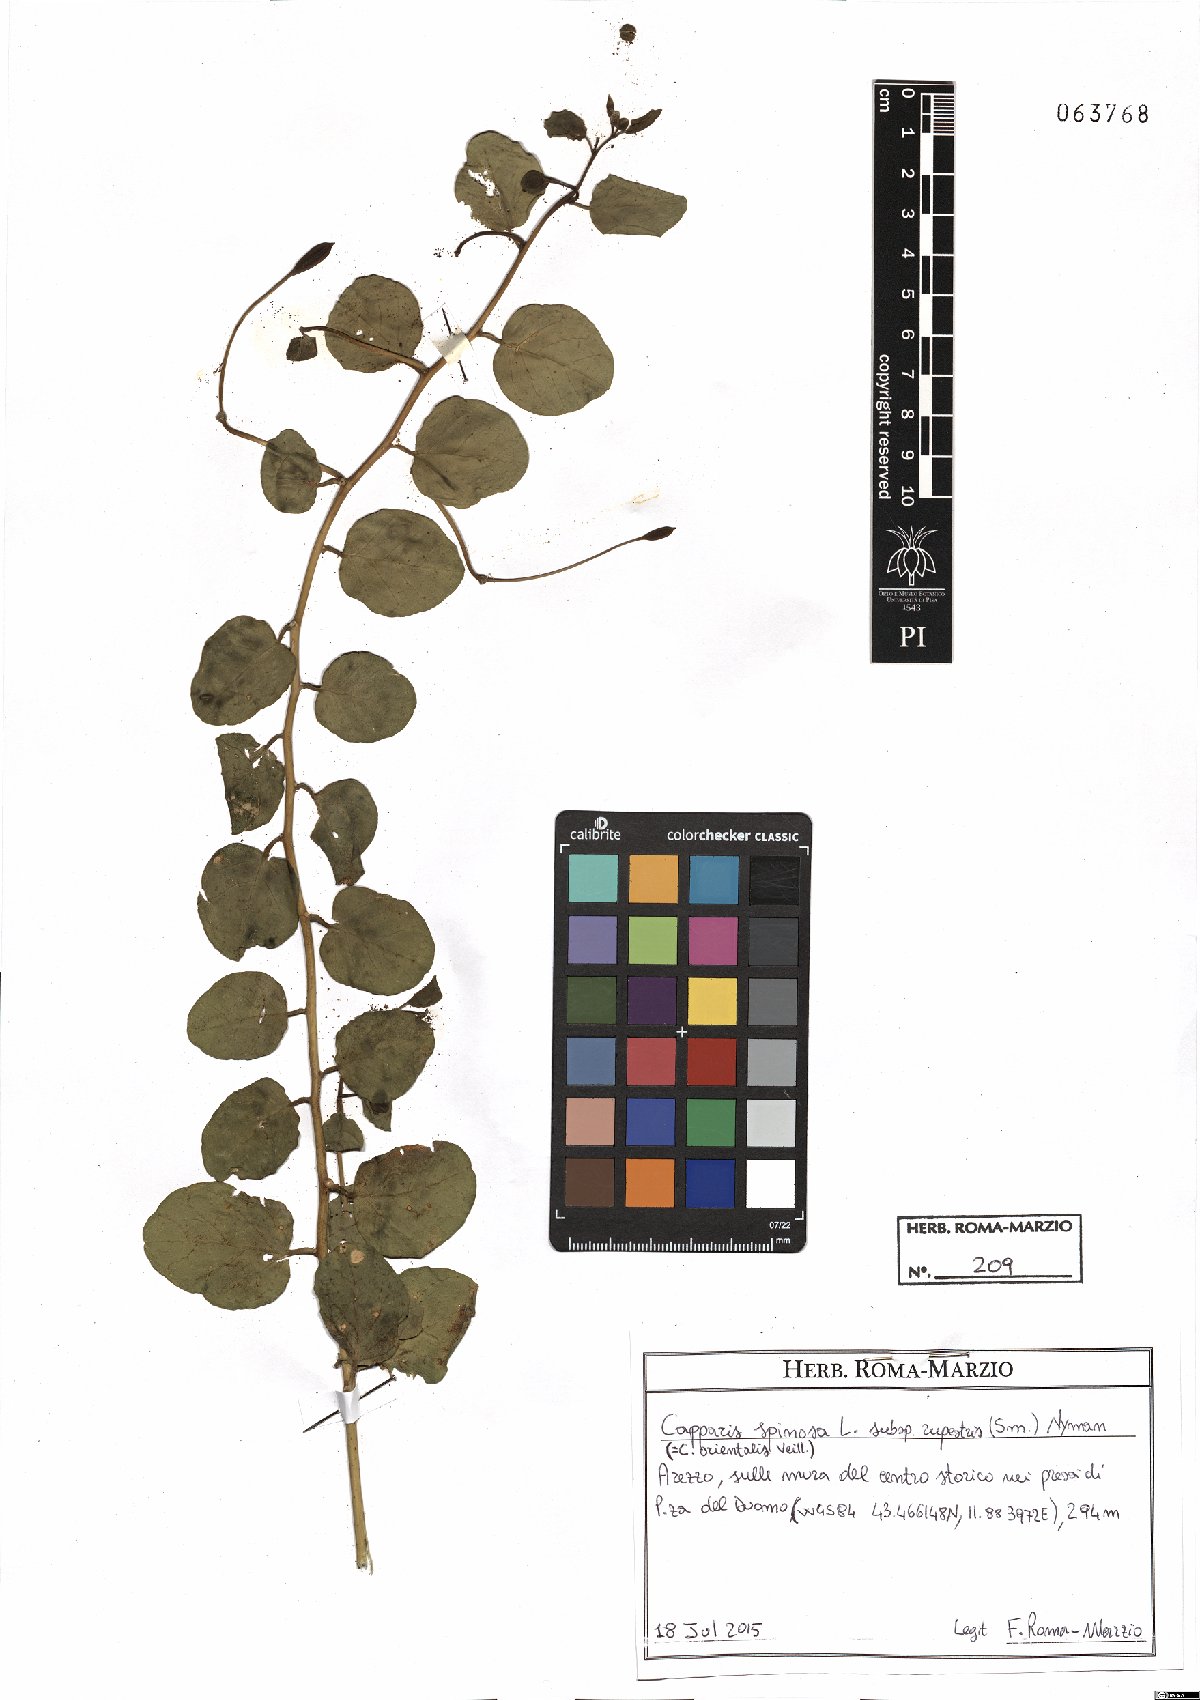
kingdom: Plantae
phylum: Tracheophyta
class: Magnoliopsida
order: Brassicales
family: Capparaceae
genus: Capparis
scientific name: Capparis spinosa
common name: Caper
